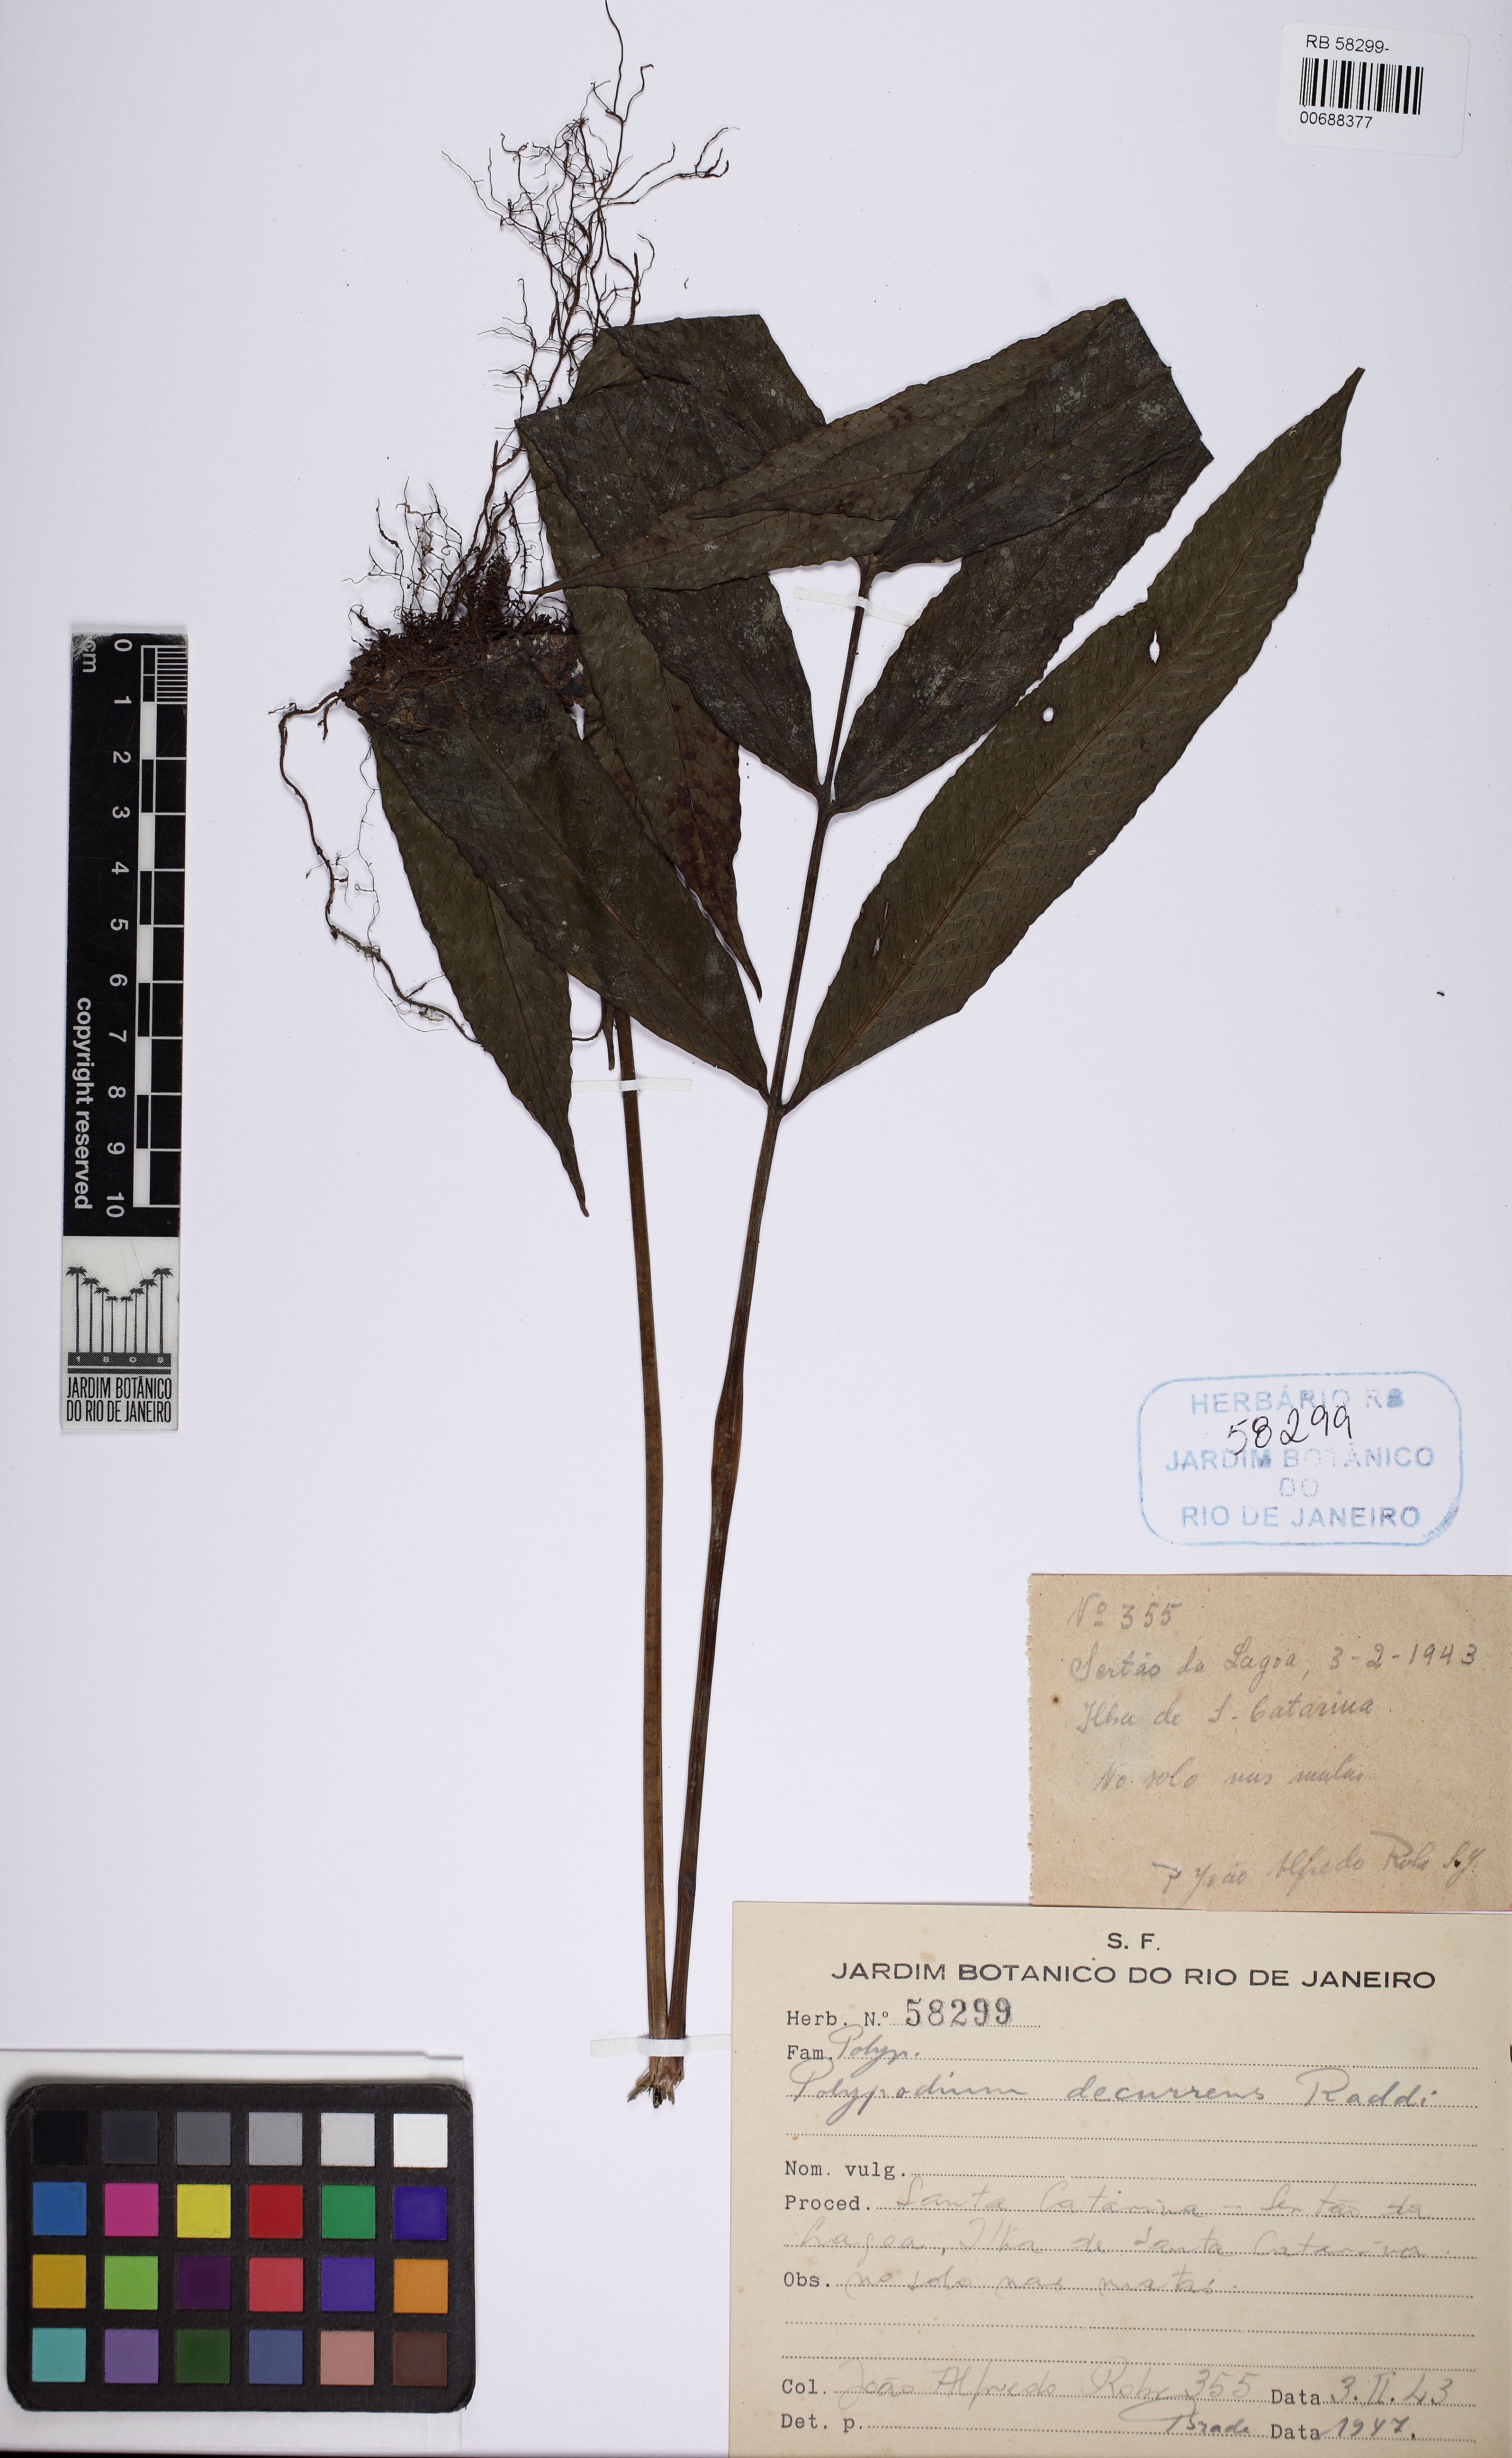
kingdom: Plantae
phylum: Tracheophyta
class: Polypodiopsida
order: Polypodiales
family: Polypodiaceae
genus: Campyloneurum
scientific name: Campyloneurum decurrens
